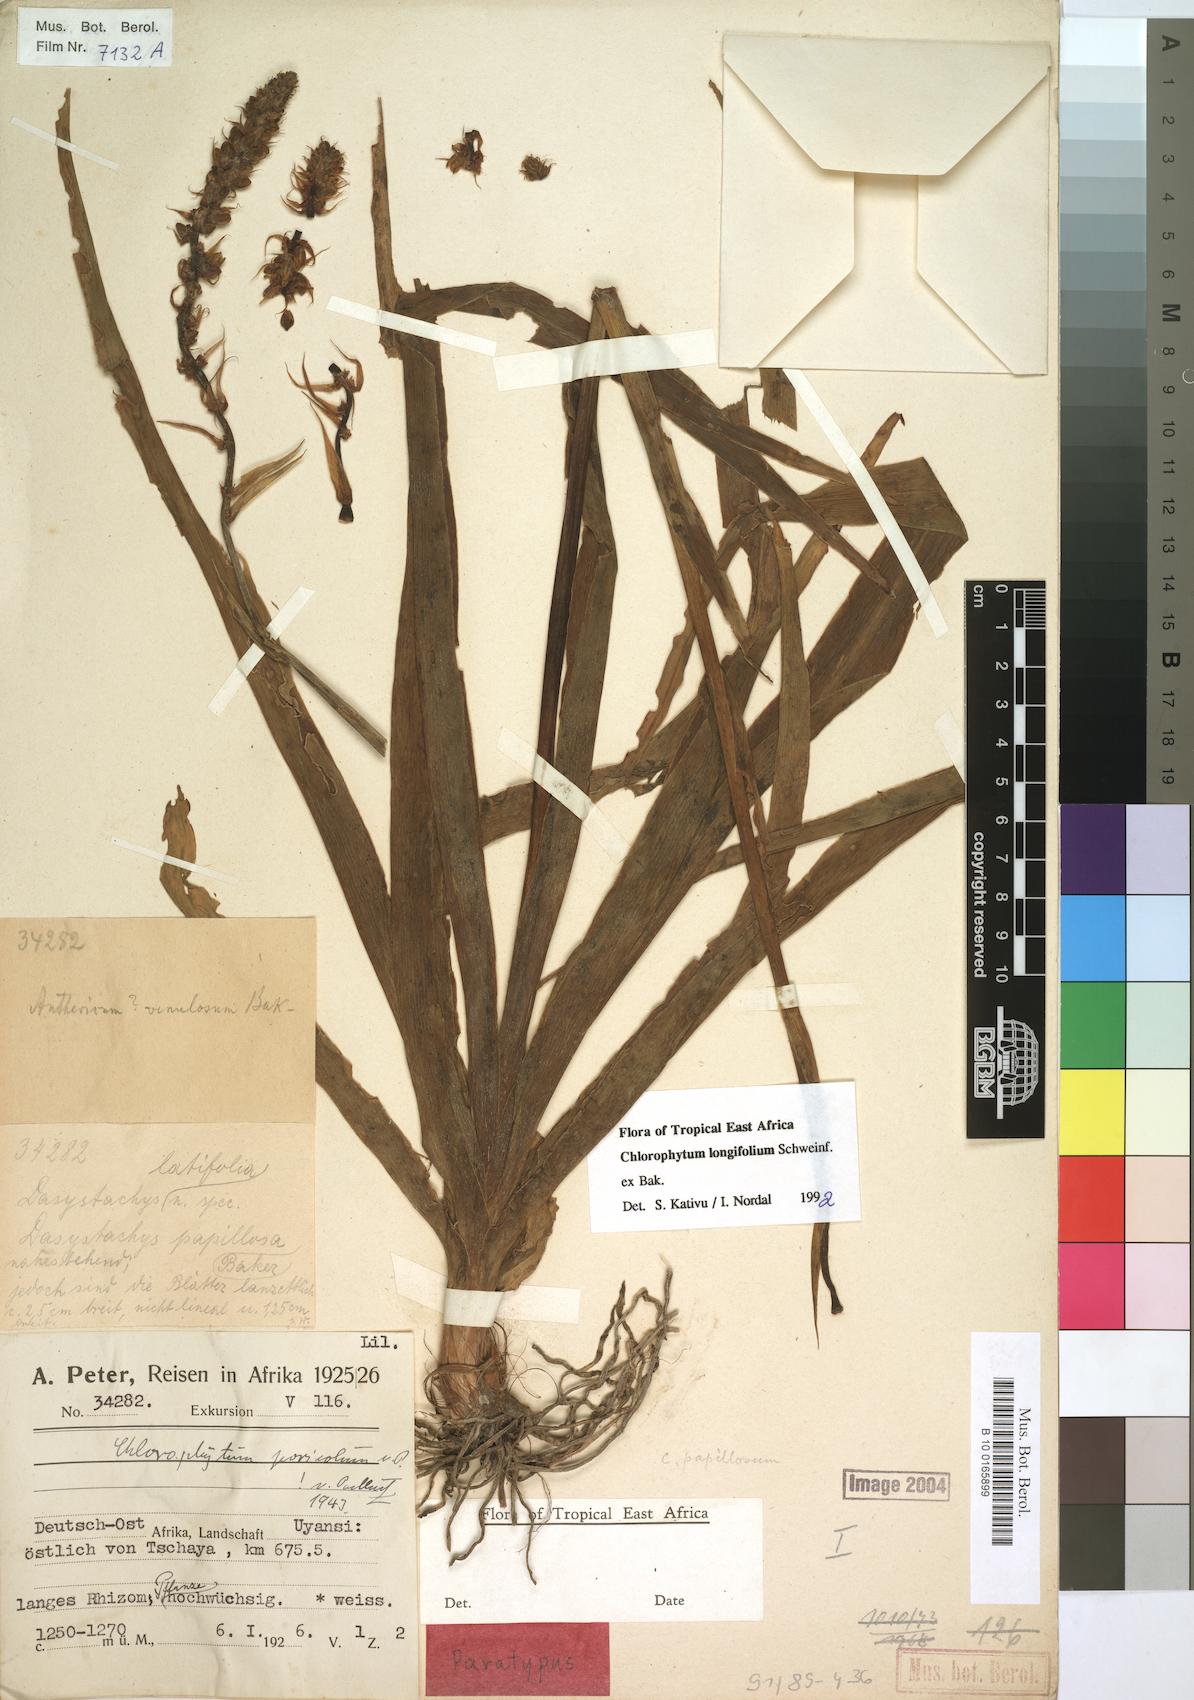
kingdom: Plantae
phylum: Tracheophyta
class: Liliopsida
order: Asparagales
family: Asparagaceae
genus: Chlorophytum
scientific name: Chlorophytum longifolium
